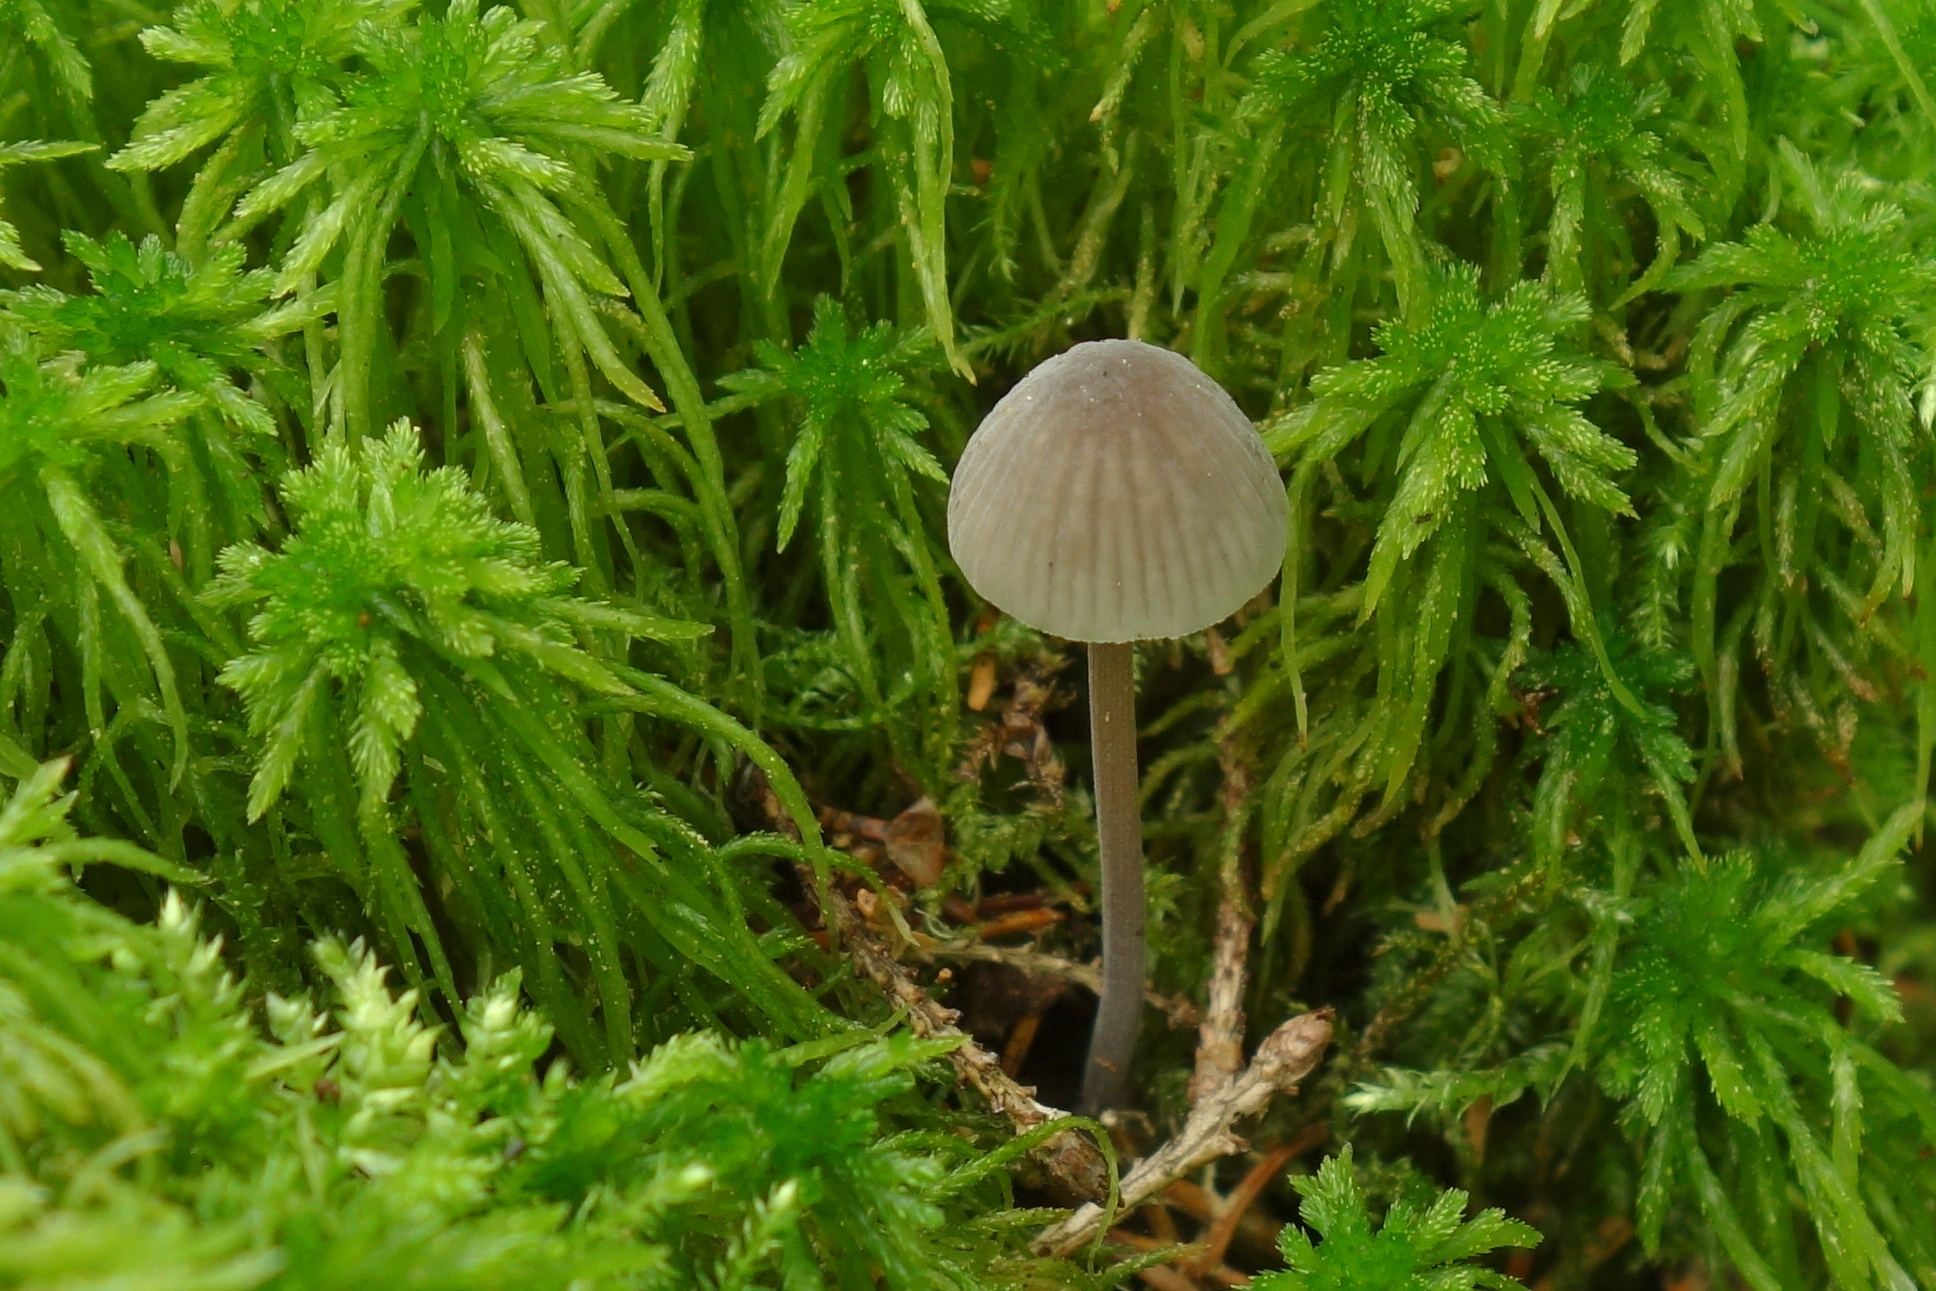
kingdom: Fungi
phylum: Basidiomycota
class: Agaricomycetes
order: Agaricales
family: Mycenaceae
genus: Mycena
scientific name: Mycena galopus
